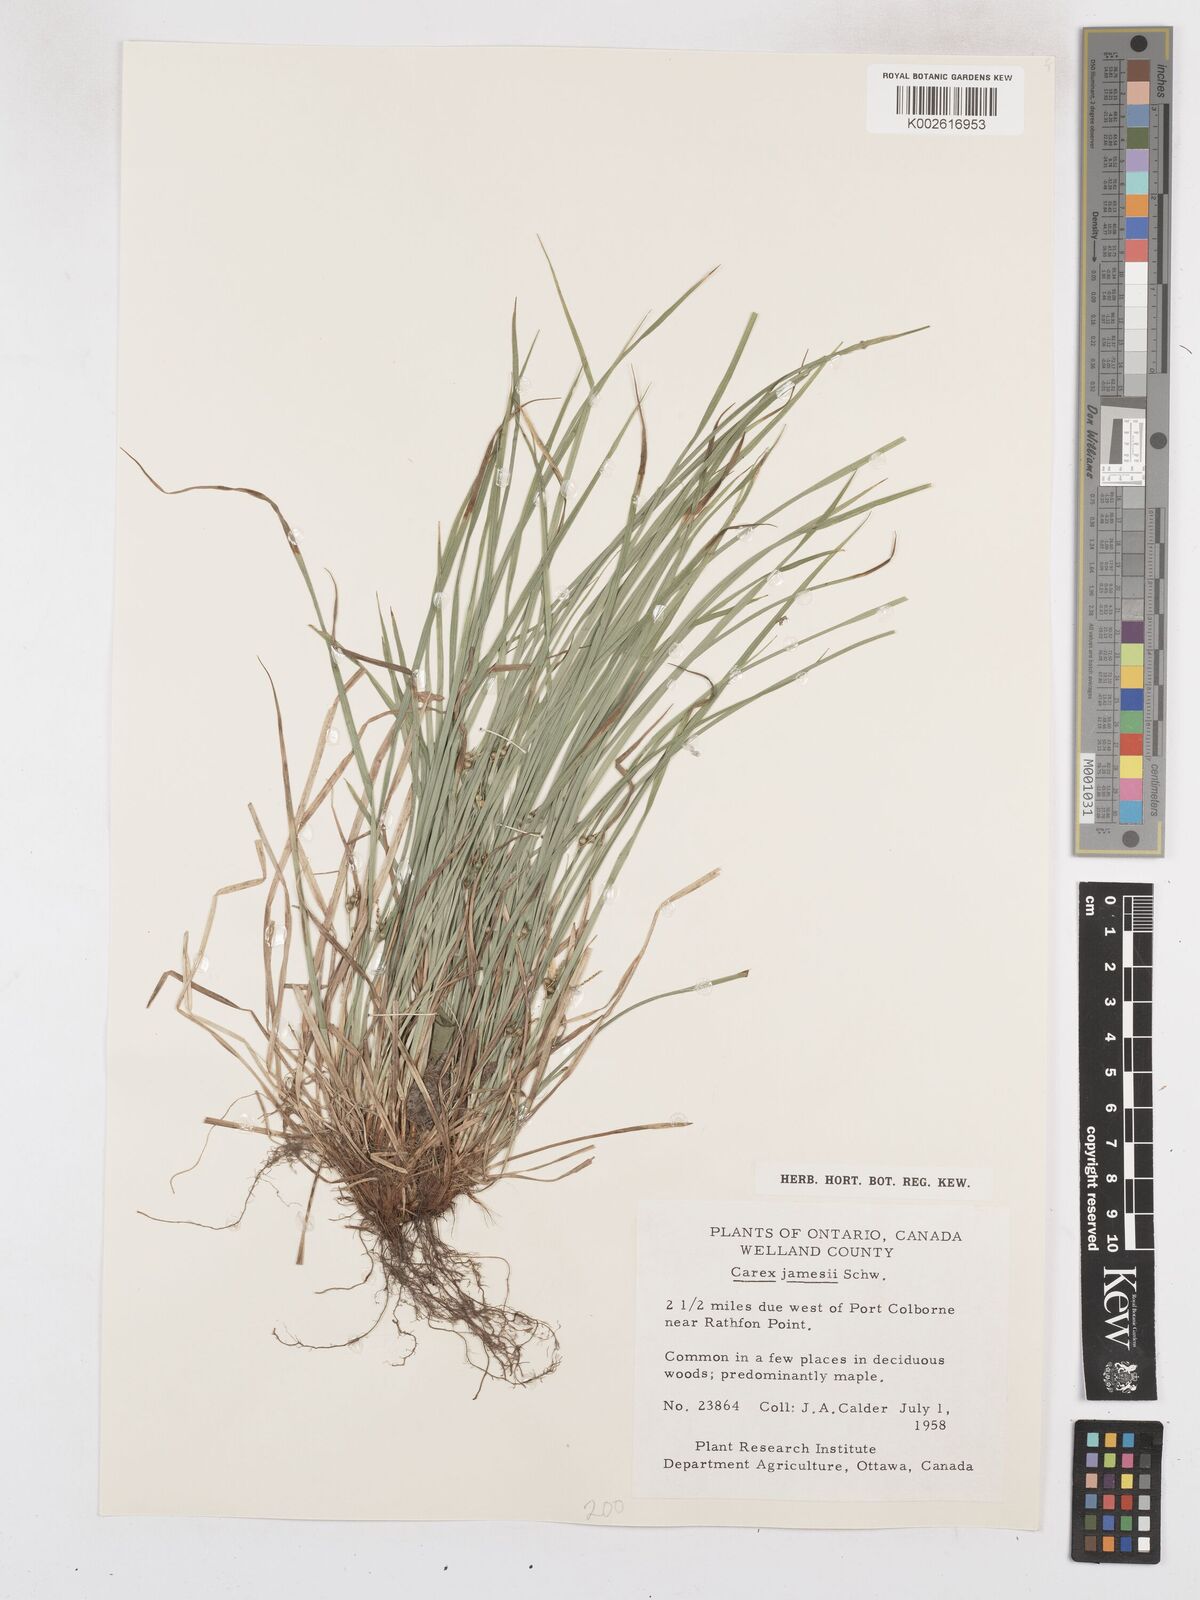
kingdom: Plantae
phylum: Tracheophyta
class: Liliopsida
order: Poales
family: Cyperaceae
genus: Carex
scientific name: Carex jamesii
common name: Grass sedge
